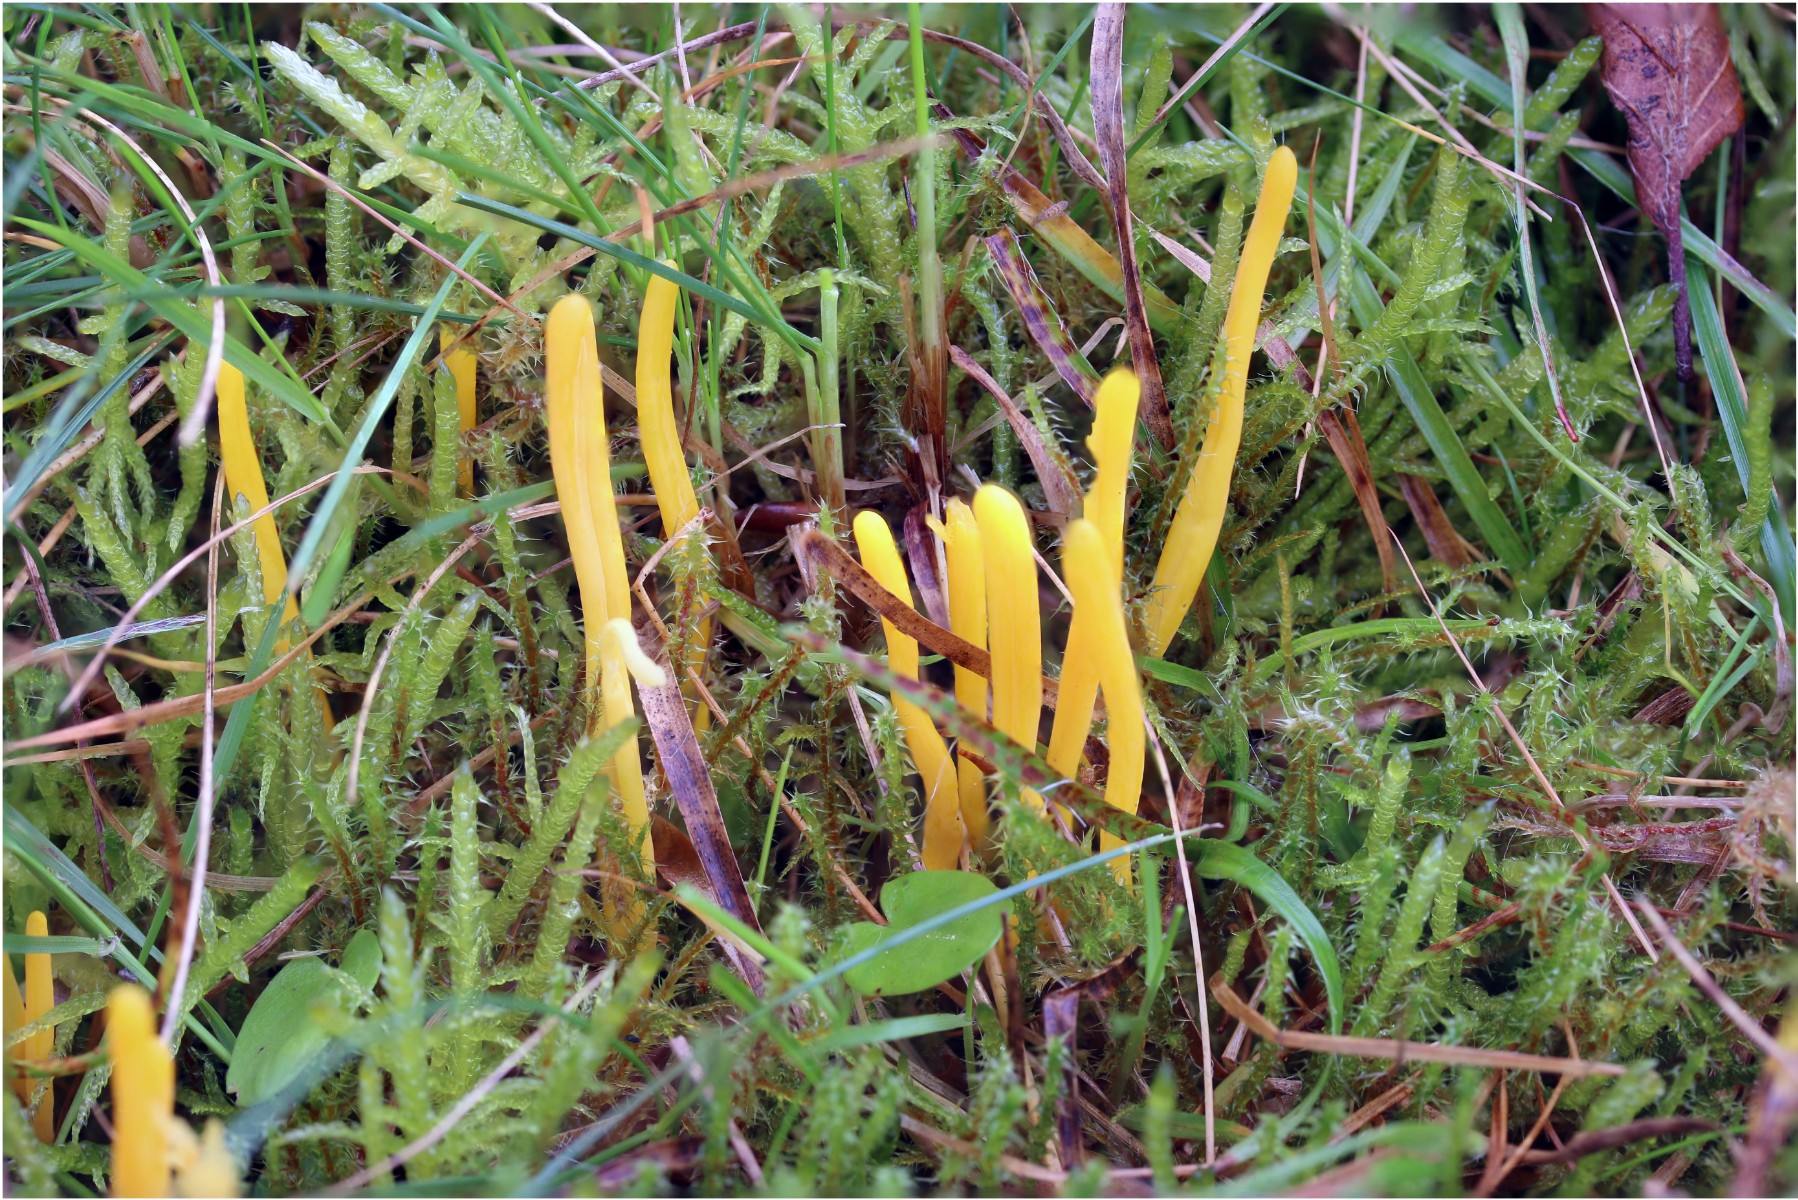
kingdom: Fungi
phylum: Basidiomycota
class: Agaricomycetes
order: Agaricales
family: Clavariaceae
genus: Clavulinopsis
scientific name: Clavulinopsis helvola
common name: orangegul køllesvamp
